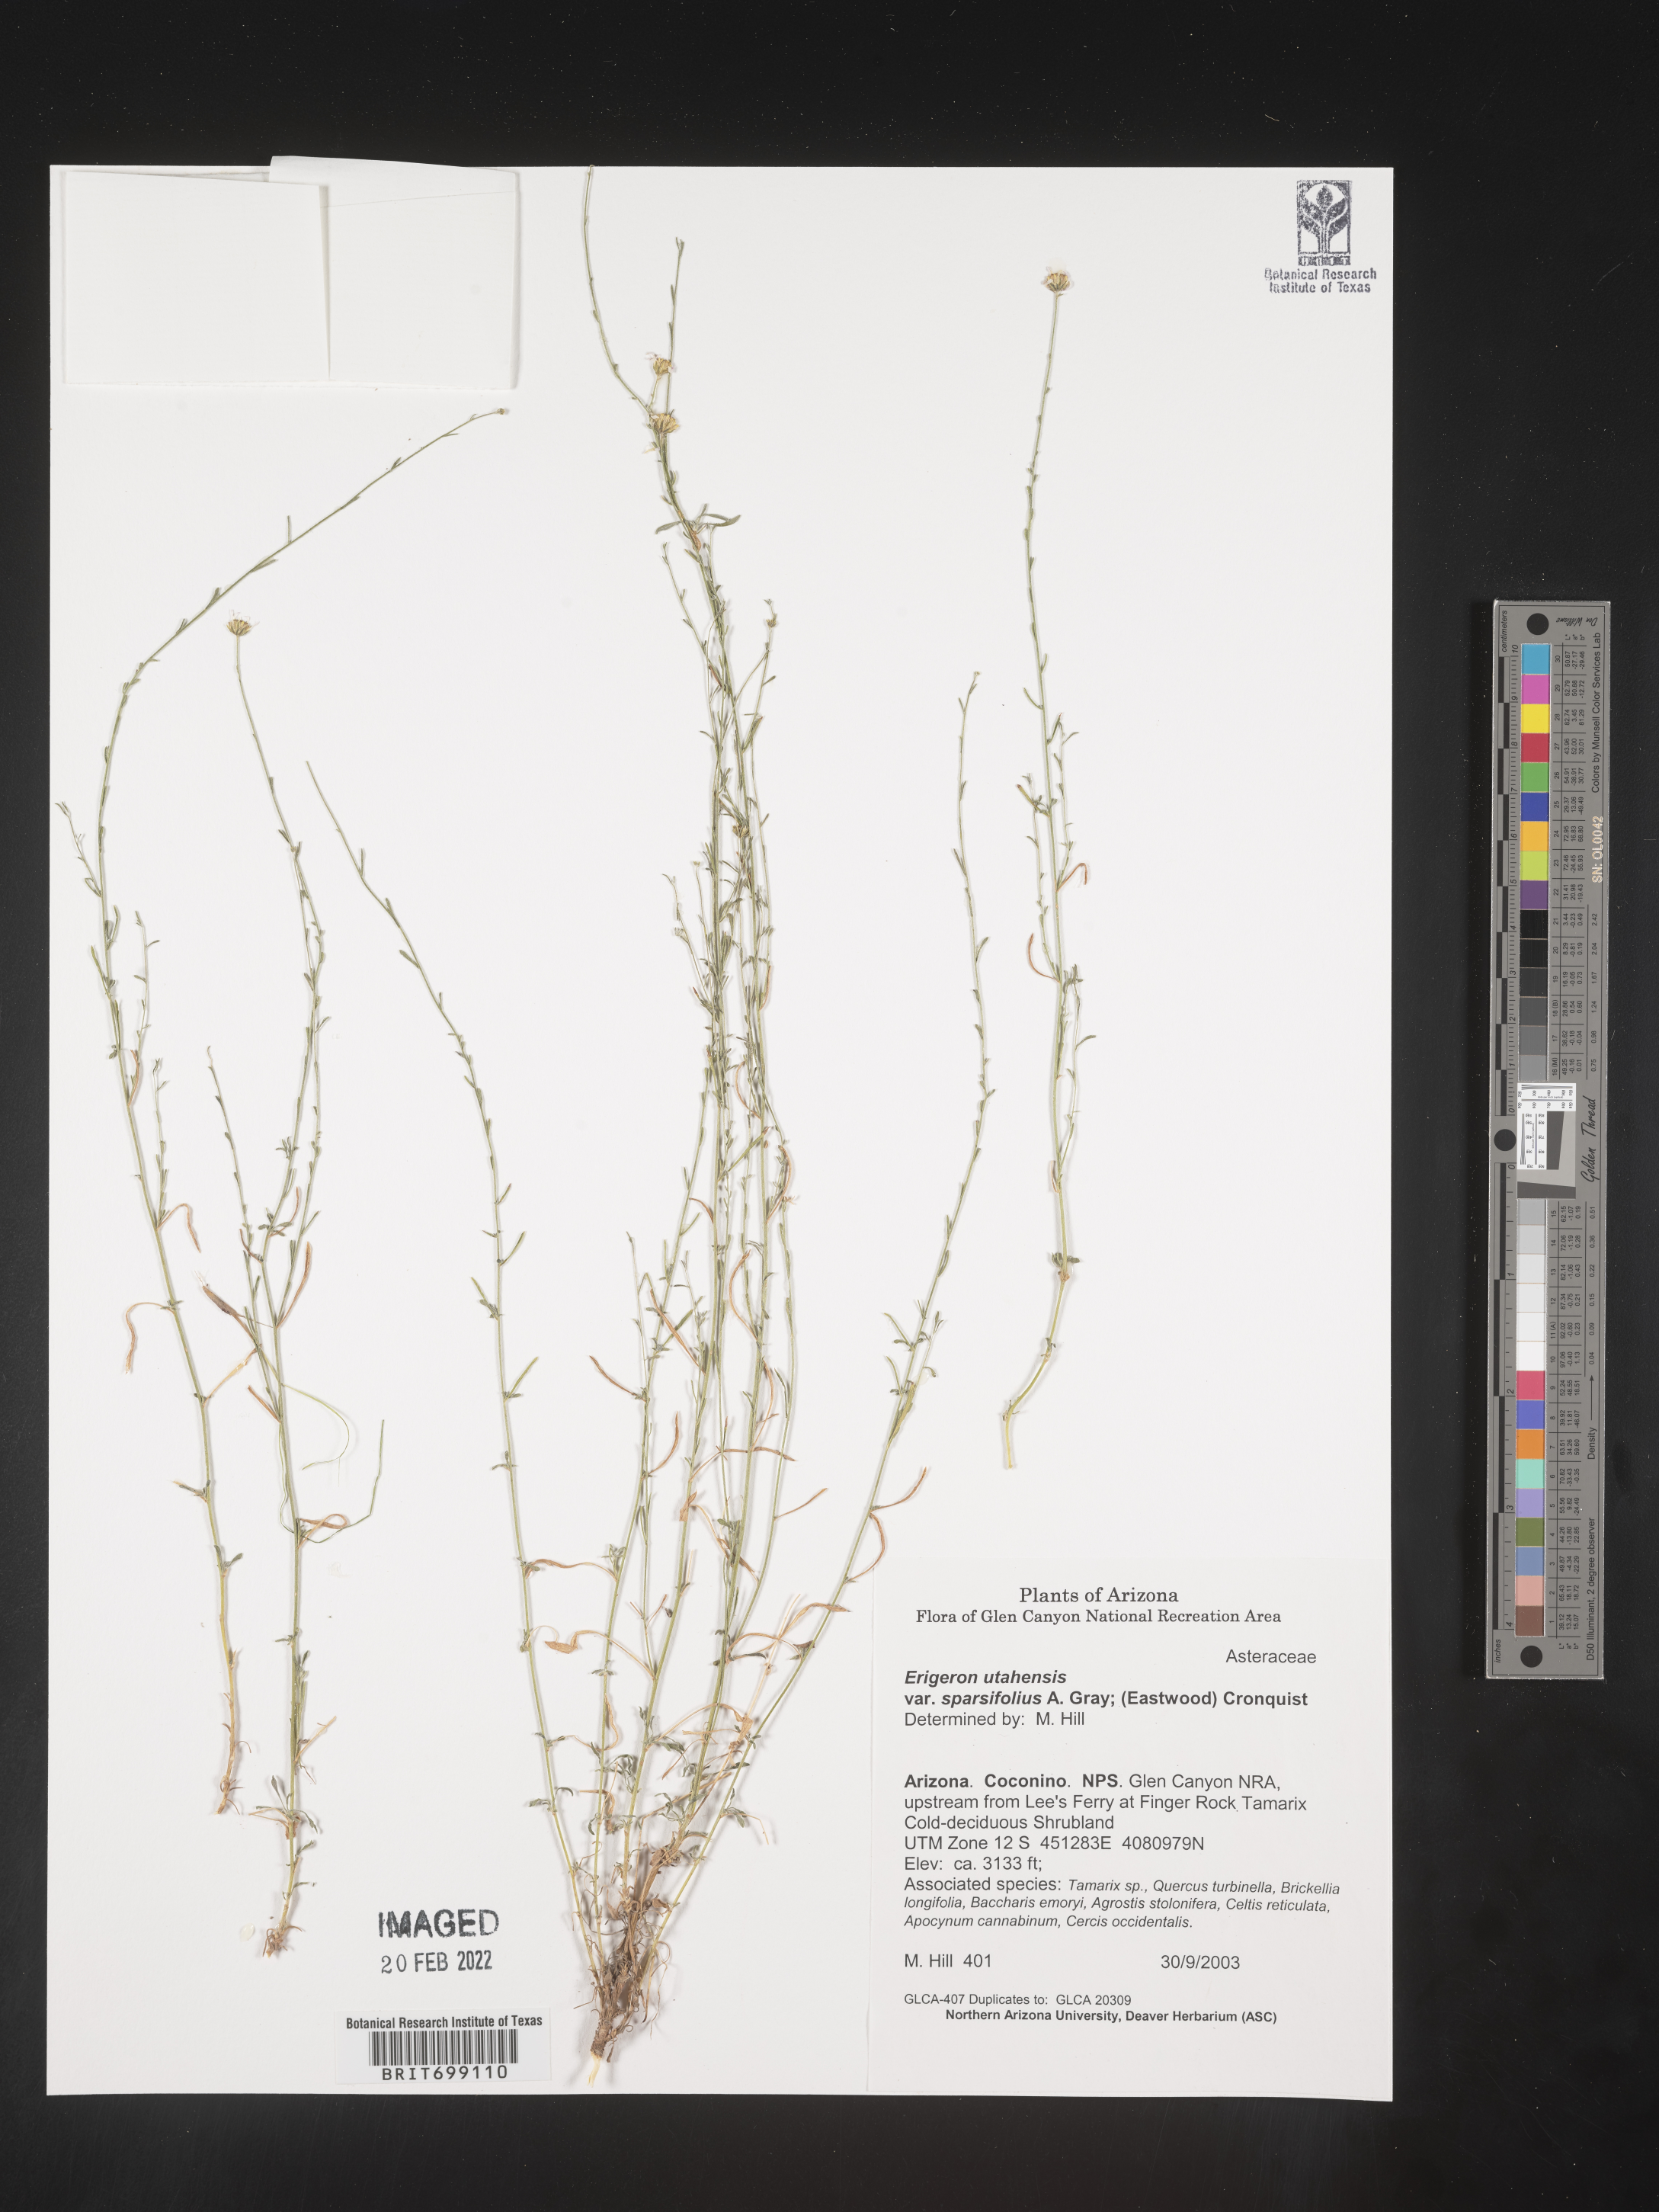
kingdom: Plantae
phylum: Tracheophyta
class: Magnoliopsida
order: Asterales
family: Asteraceae
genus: Erigeron
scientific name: Erigeron sparsifolius
